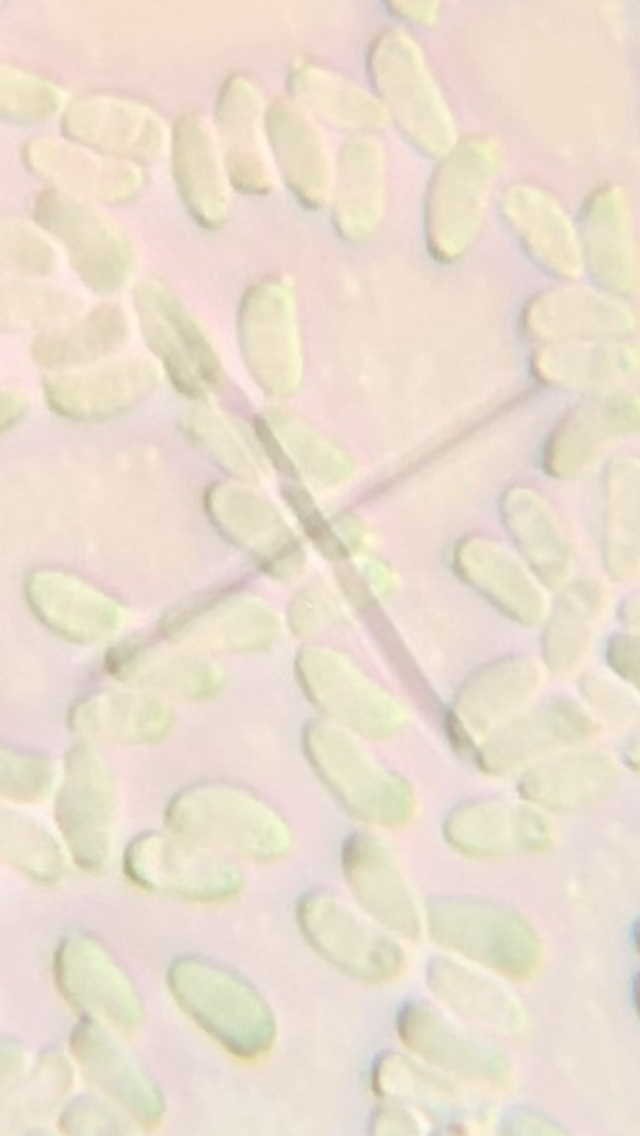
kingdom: Fungi
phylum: Basidiomycota
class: Agaricomycetes
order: Polyporales
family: Polyporaceae
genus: Trametes
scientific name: Trametes ochracea
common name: bæltet læderporesvamp
